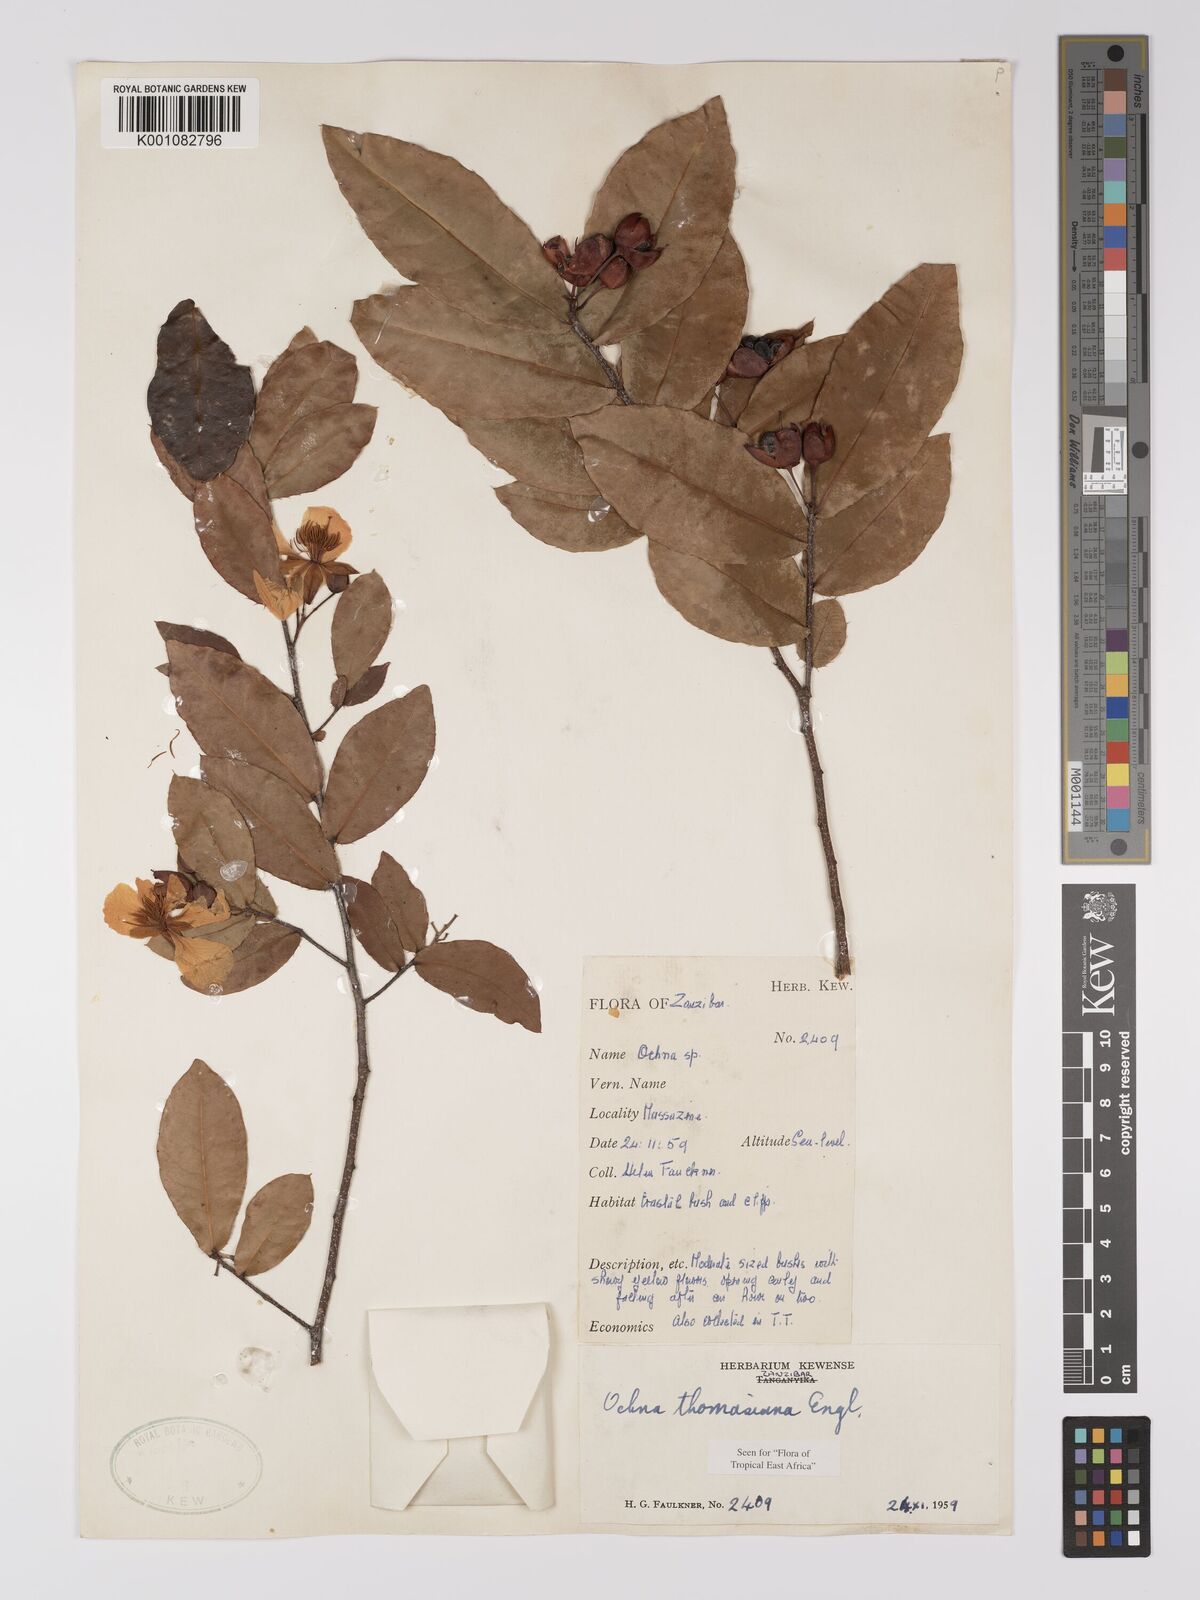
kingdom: Plantae
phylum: Tracheophyta
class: Magnoliopsida
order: Malpighiales
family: Ochnaceae
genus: Ochna
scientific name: Ochna thomasiana
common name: Thomas' bird's-eye bush
